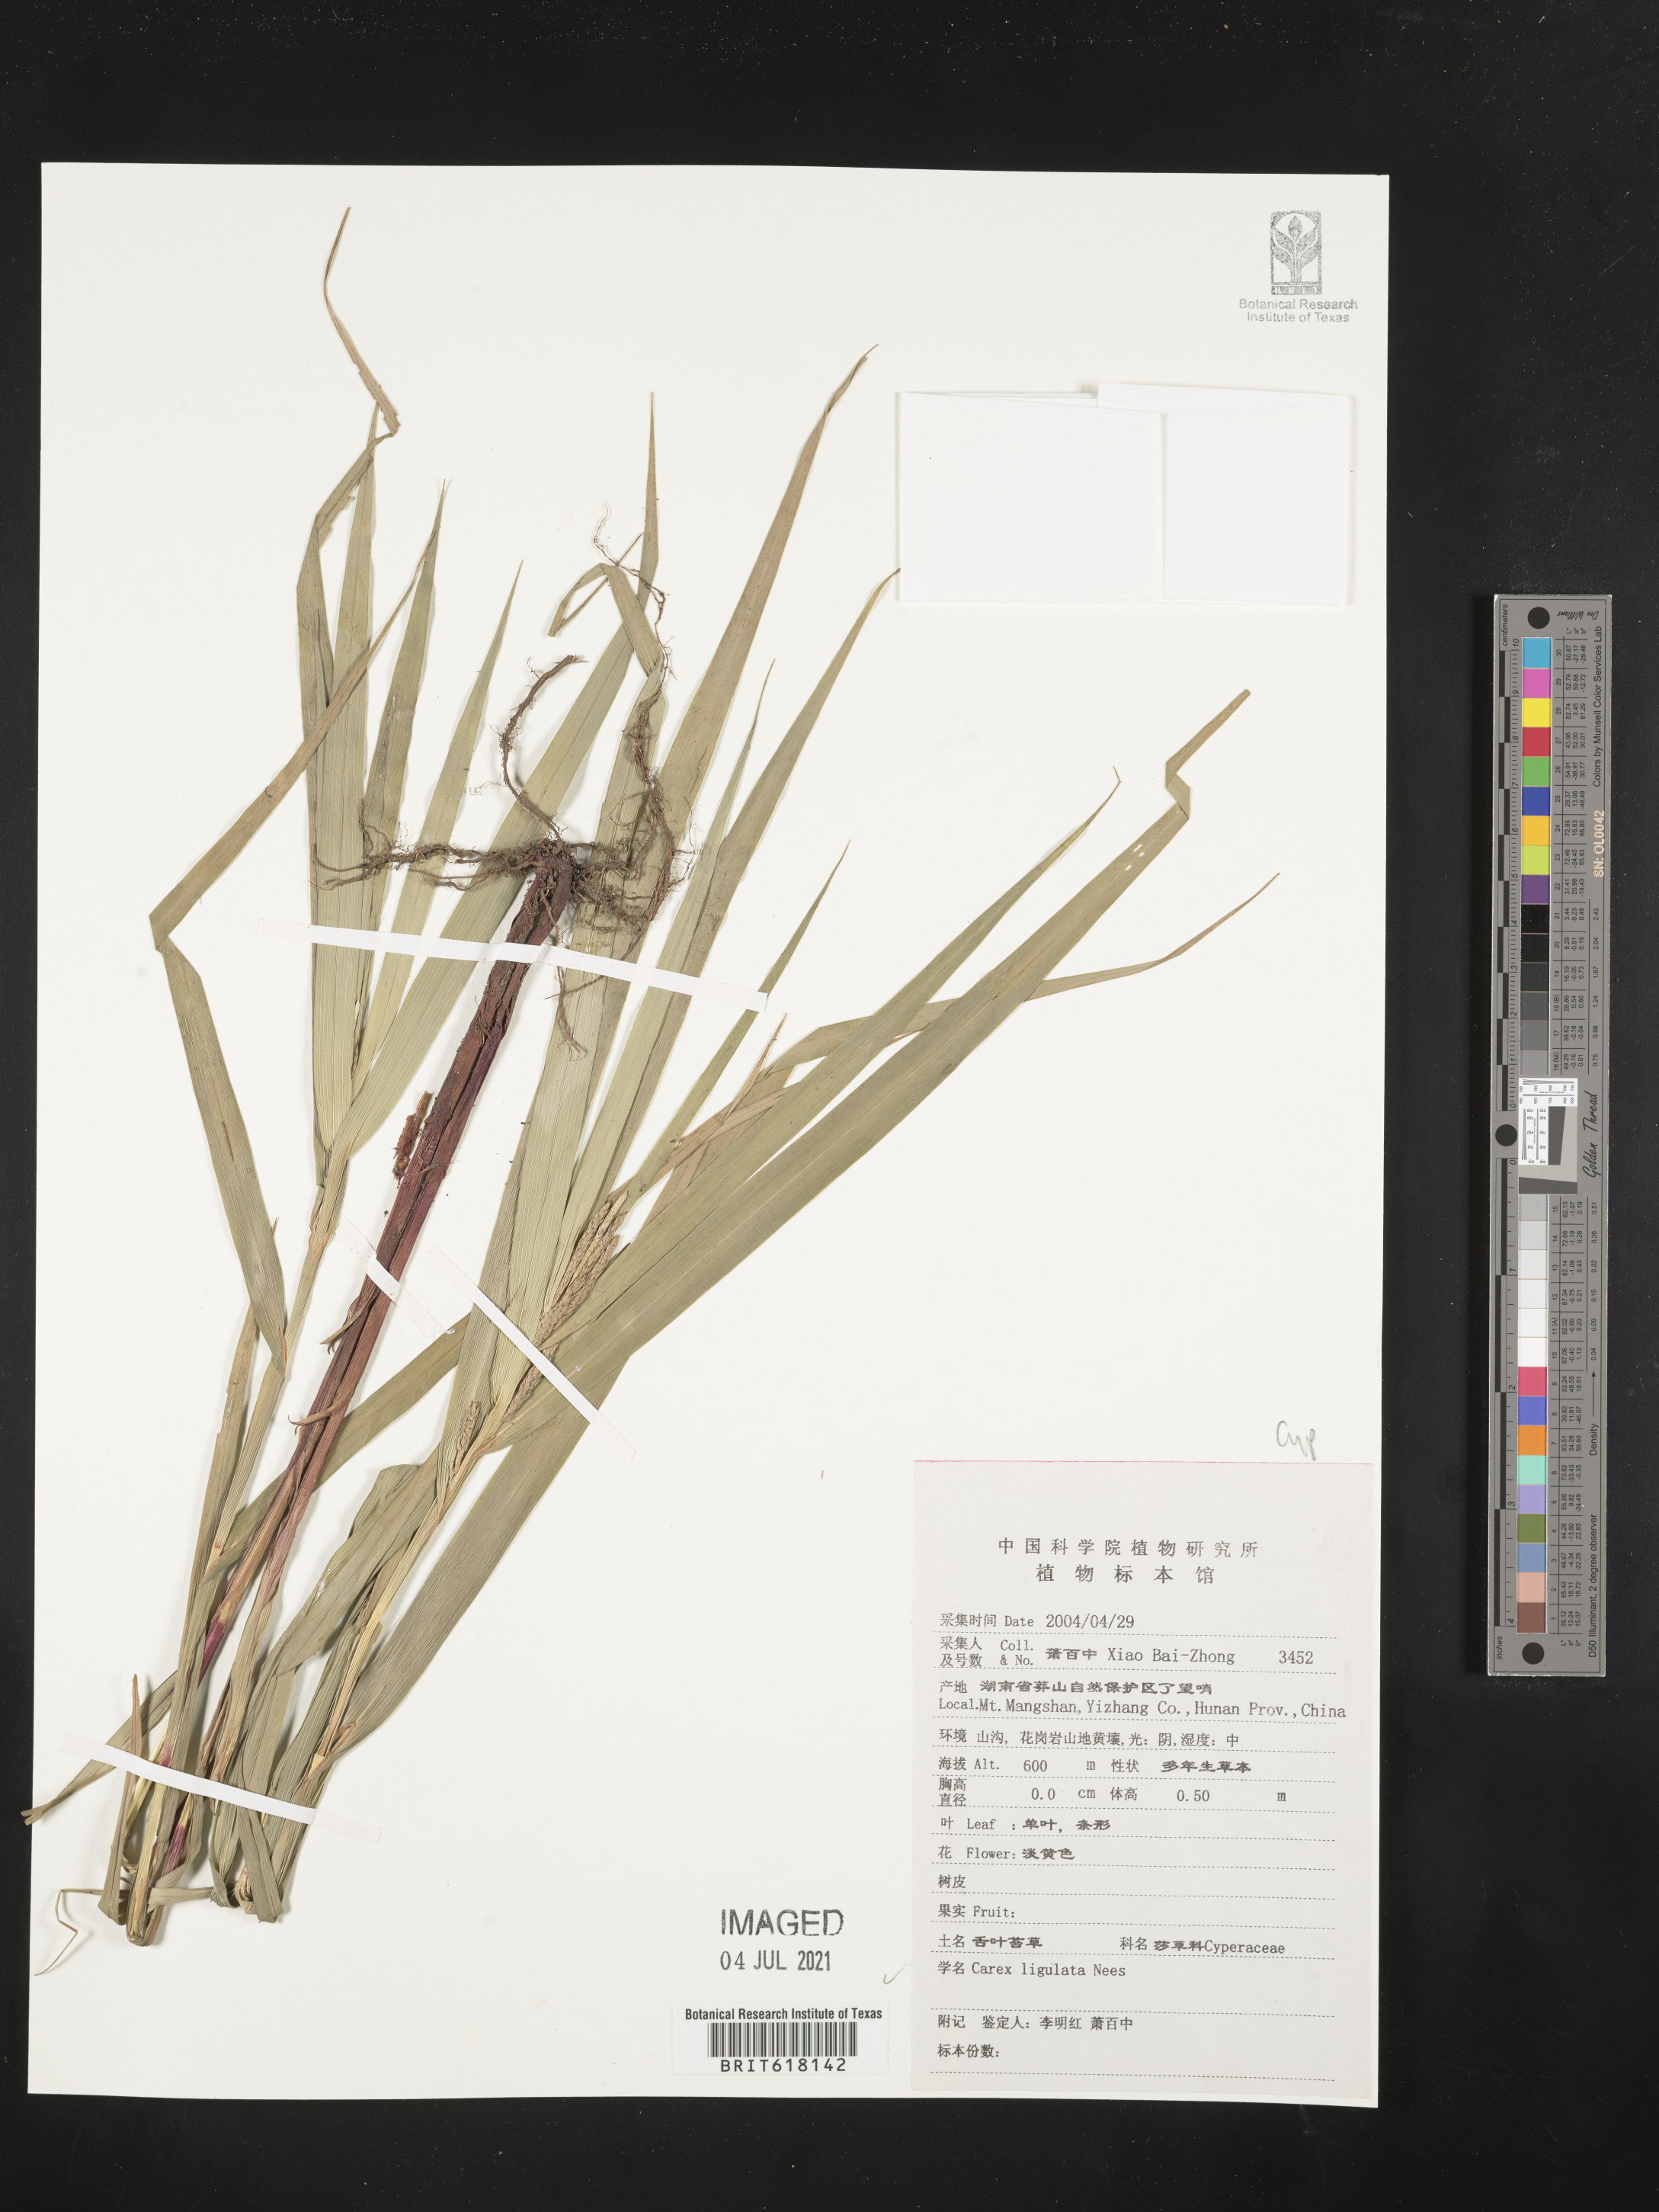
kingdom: Plantae
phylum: Tracheophyta
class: Liliopsida
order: Poales
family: Cyperaceae
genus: Carex
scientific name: Carex ligulata
